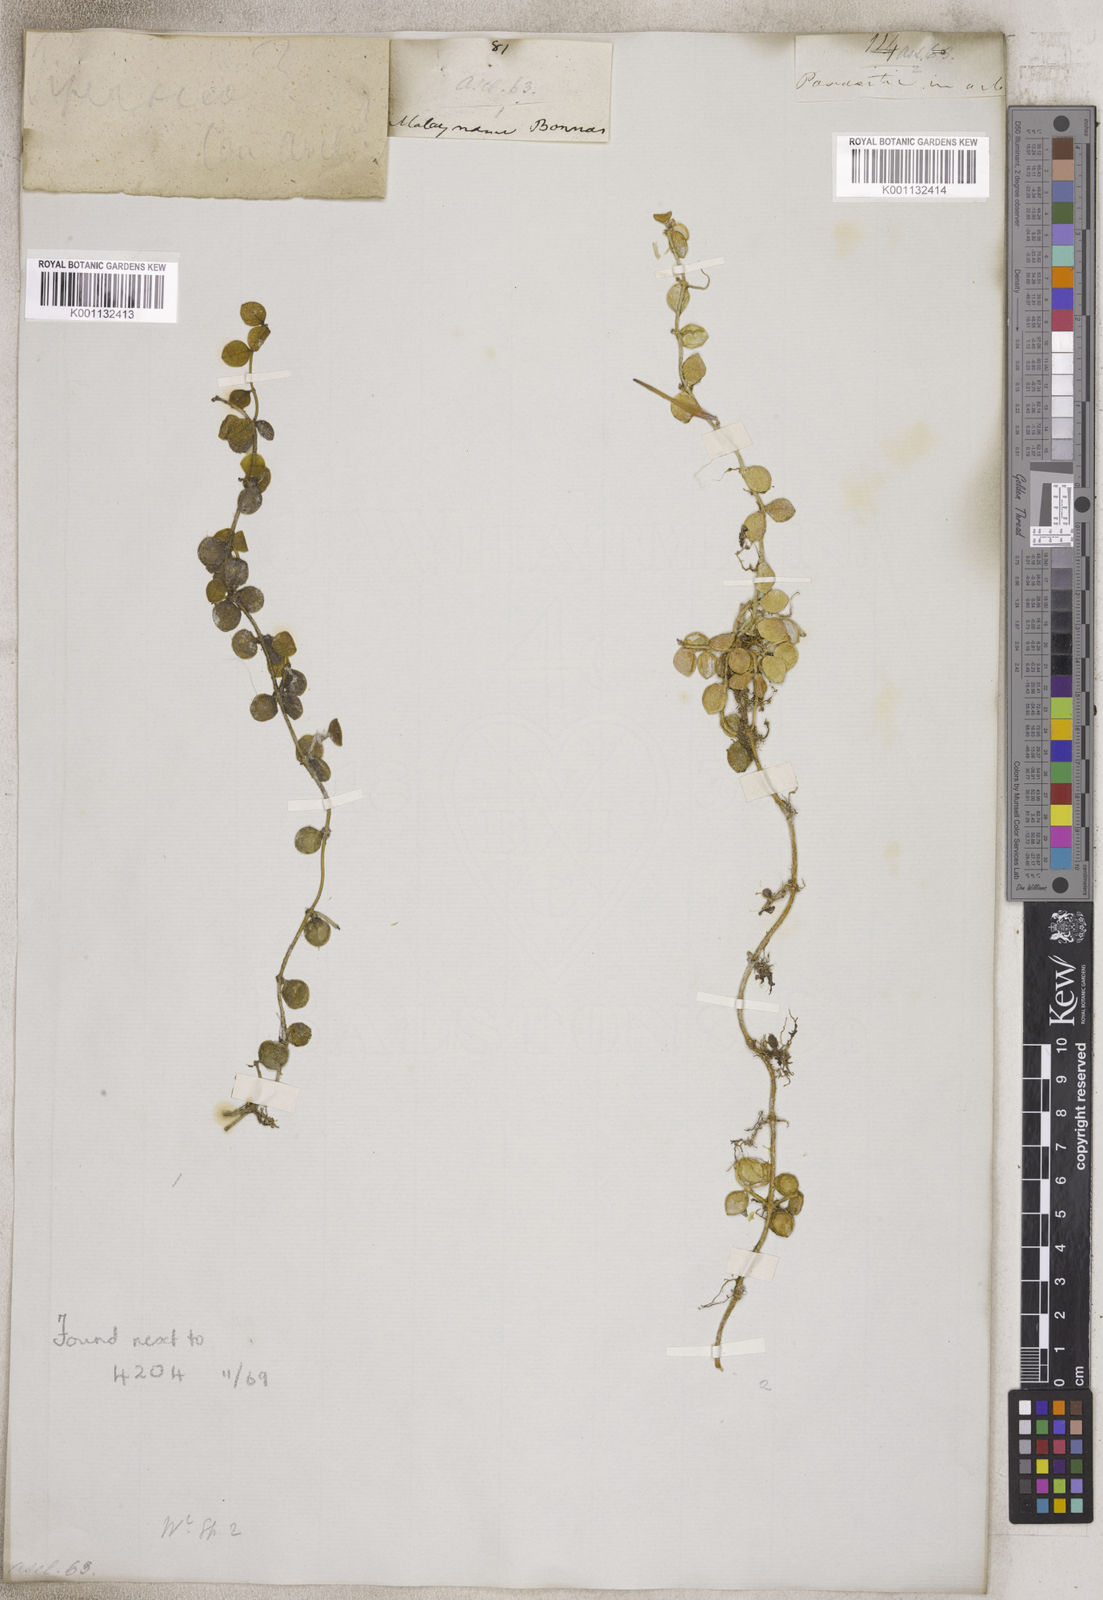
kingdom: Plantae
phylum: Tracheophyta
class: Magnoliopsida
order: Gentianales
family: Apocynaceae
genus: Dischidia
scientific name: Dischidia
